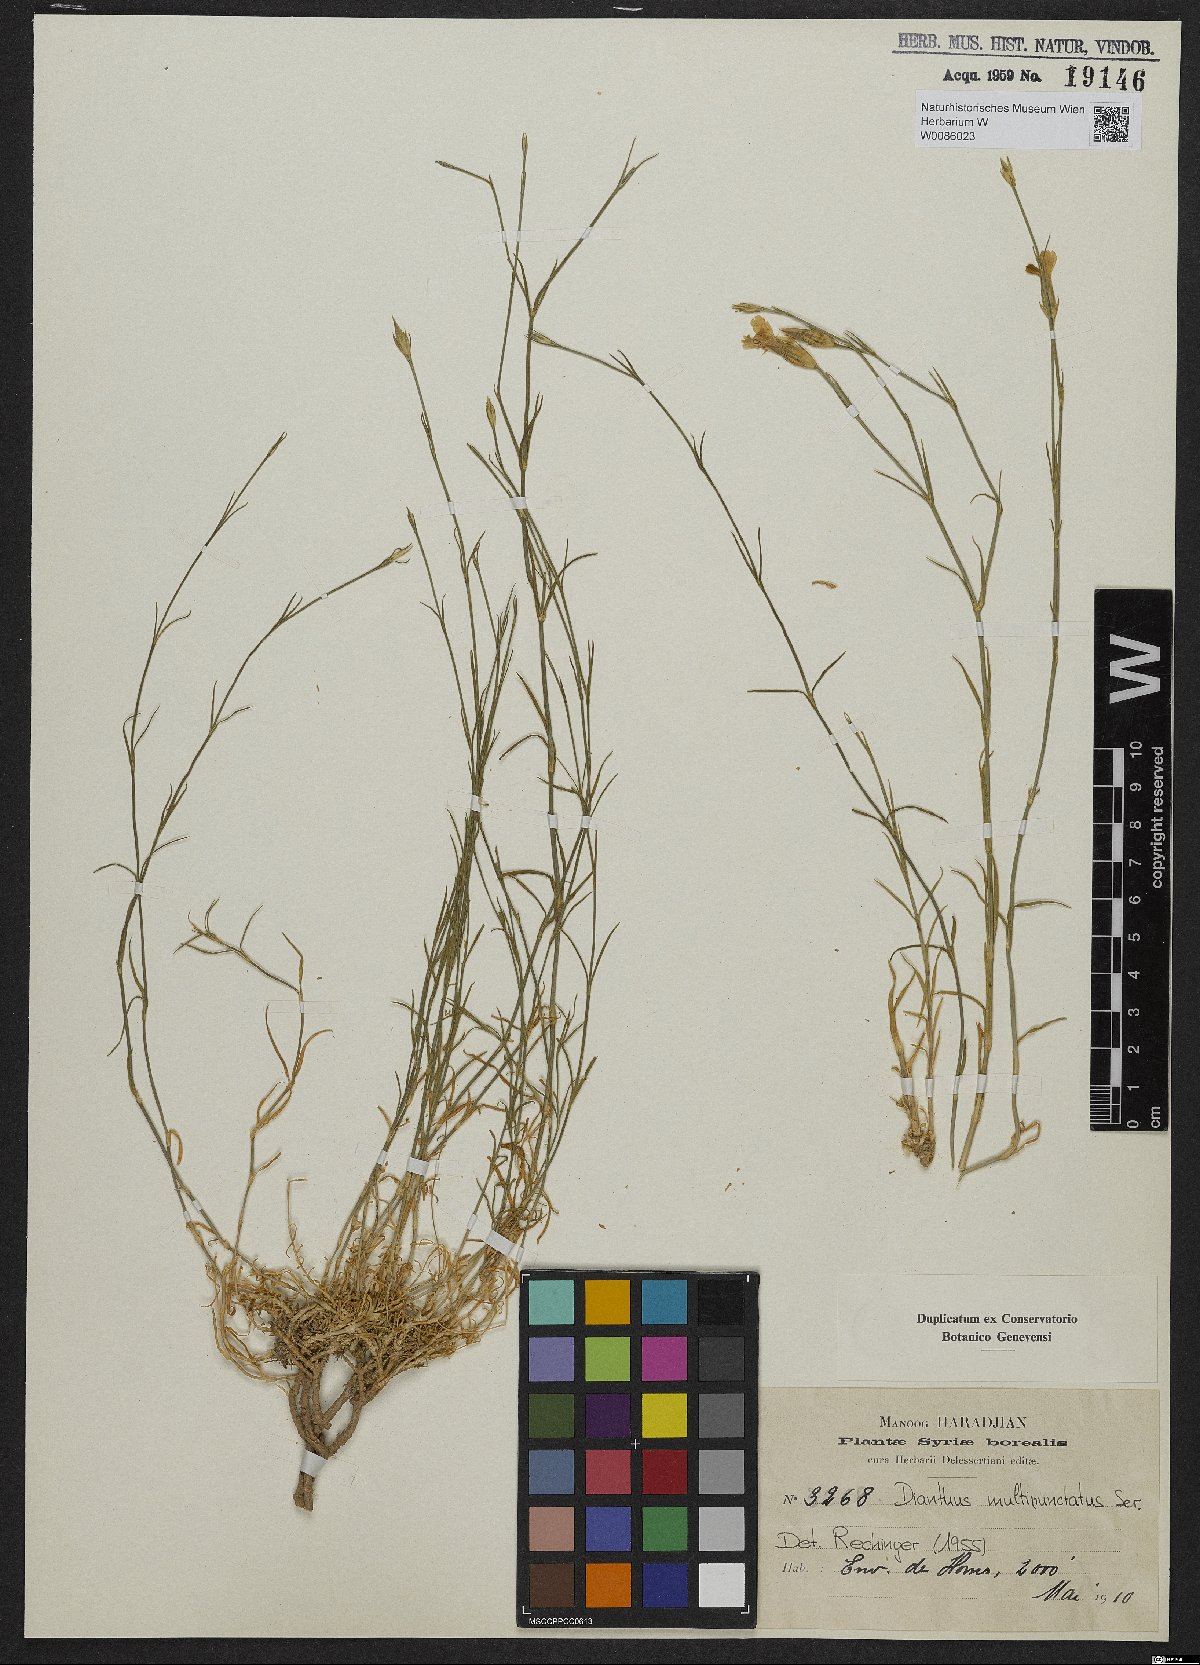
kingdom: Plantae
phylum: Tracheophyta
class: Magnoliopsida
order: Caryophyllales
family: Caryophyllaceae
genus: Dianthus
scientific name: Dianthus strictus
